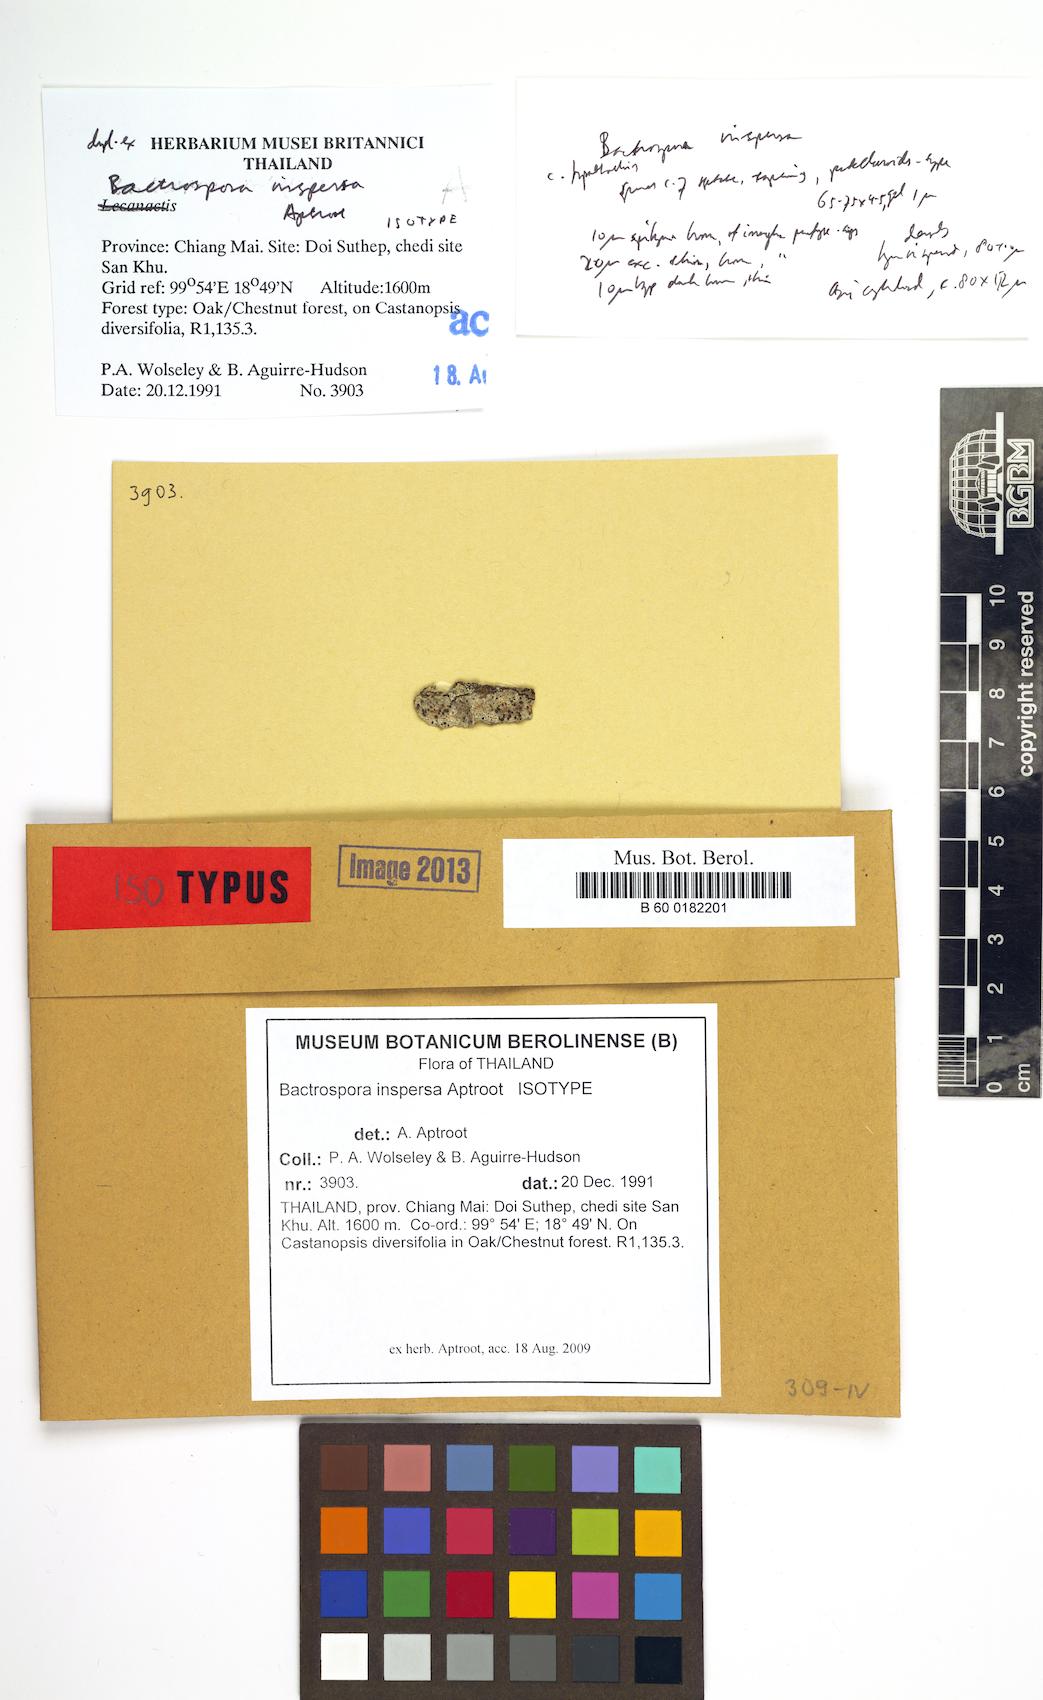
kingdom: Fungi
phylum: Ascomycota
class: Arthoniomycetes
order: Arthoniales
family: Roccellaceae
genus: Bactrospora
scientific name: Bactrospora inspersa
